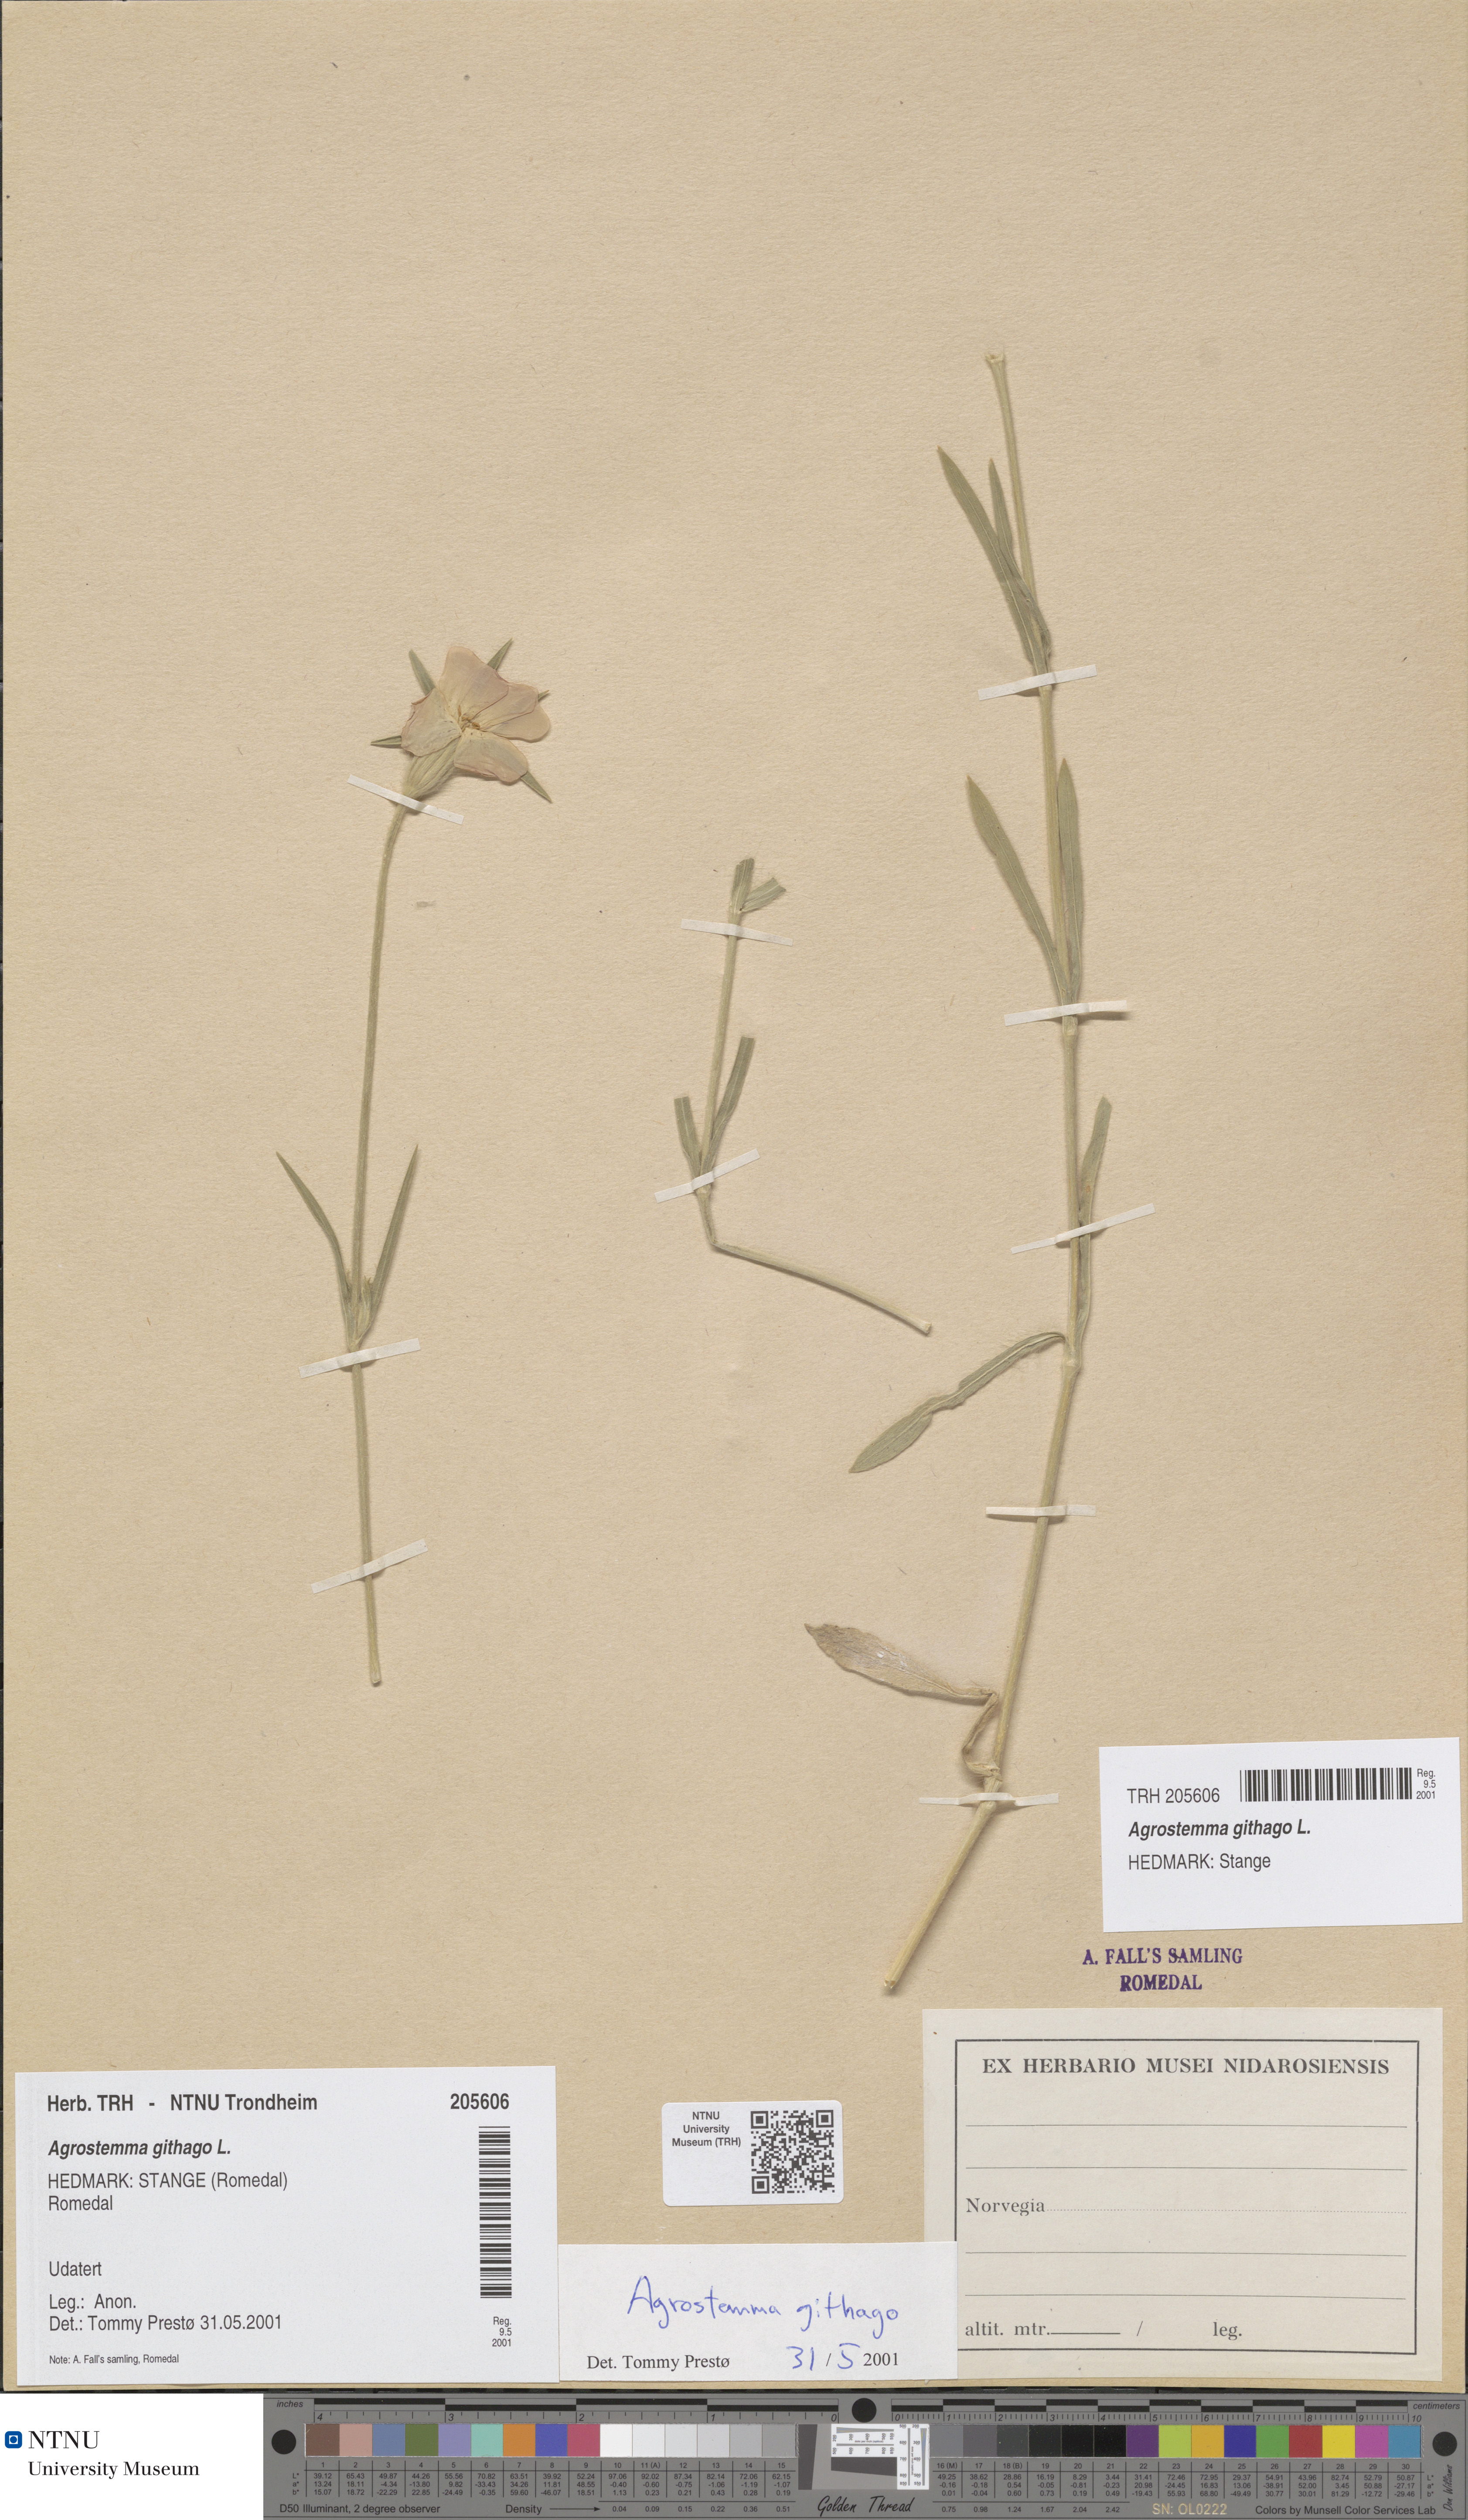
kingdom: Plantae
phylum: Tracheophyta
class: Magnoliopsida
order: Caryophyllales
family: Caryophyllaceae
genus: Agrostemma
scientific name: Agrostemma githago
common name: Common corncockle
